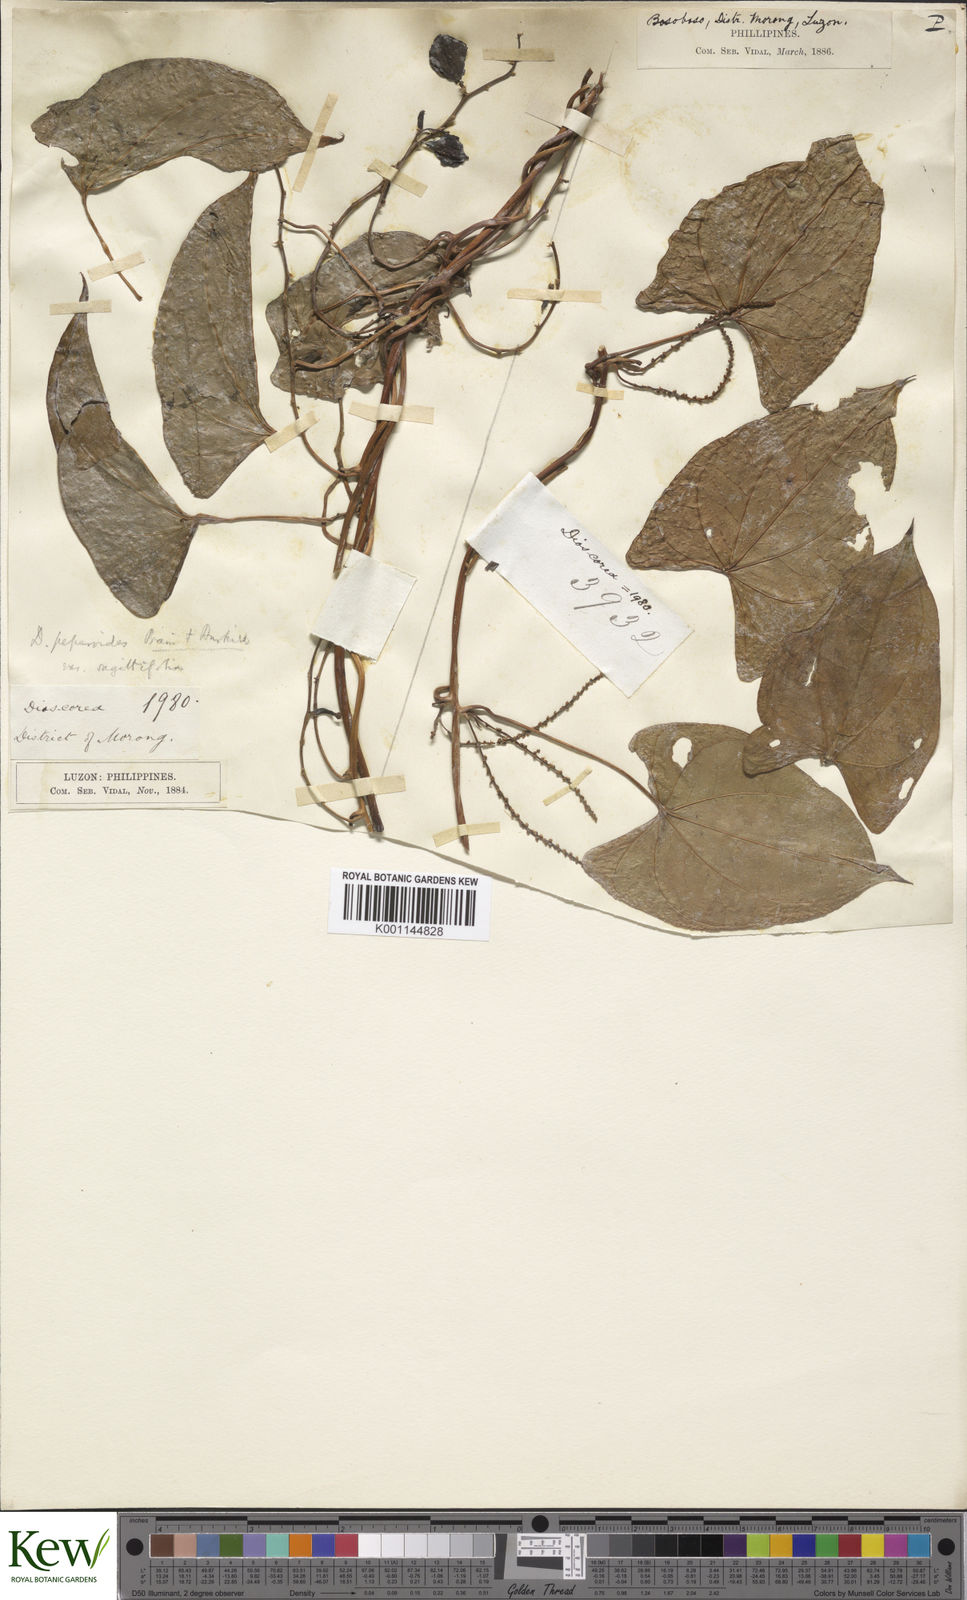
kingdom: Plantae
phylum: Tracheophyta
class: Liliopsida
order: Dioscoreales
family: Dioscoreaceae
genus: Dioscorea
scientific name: Dioscorea peperoides
